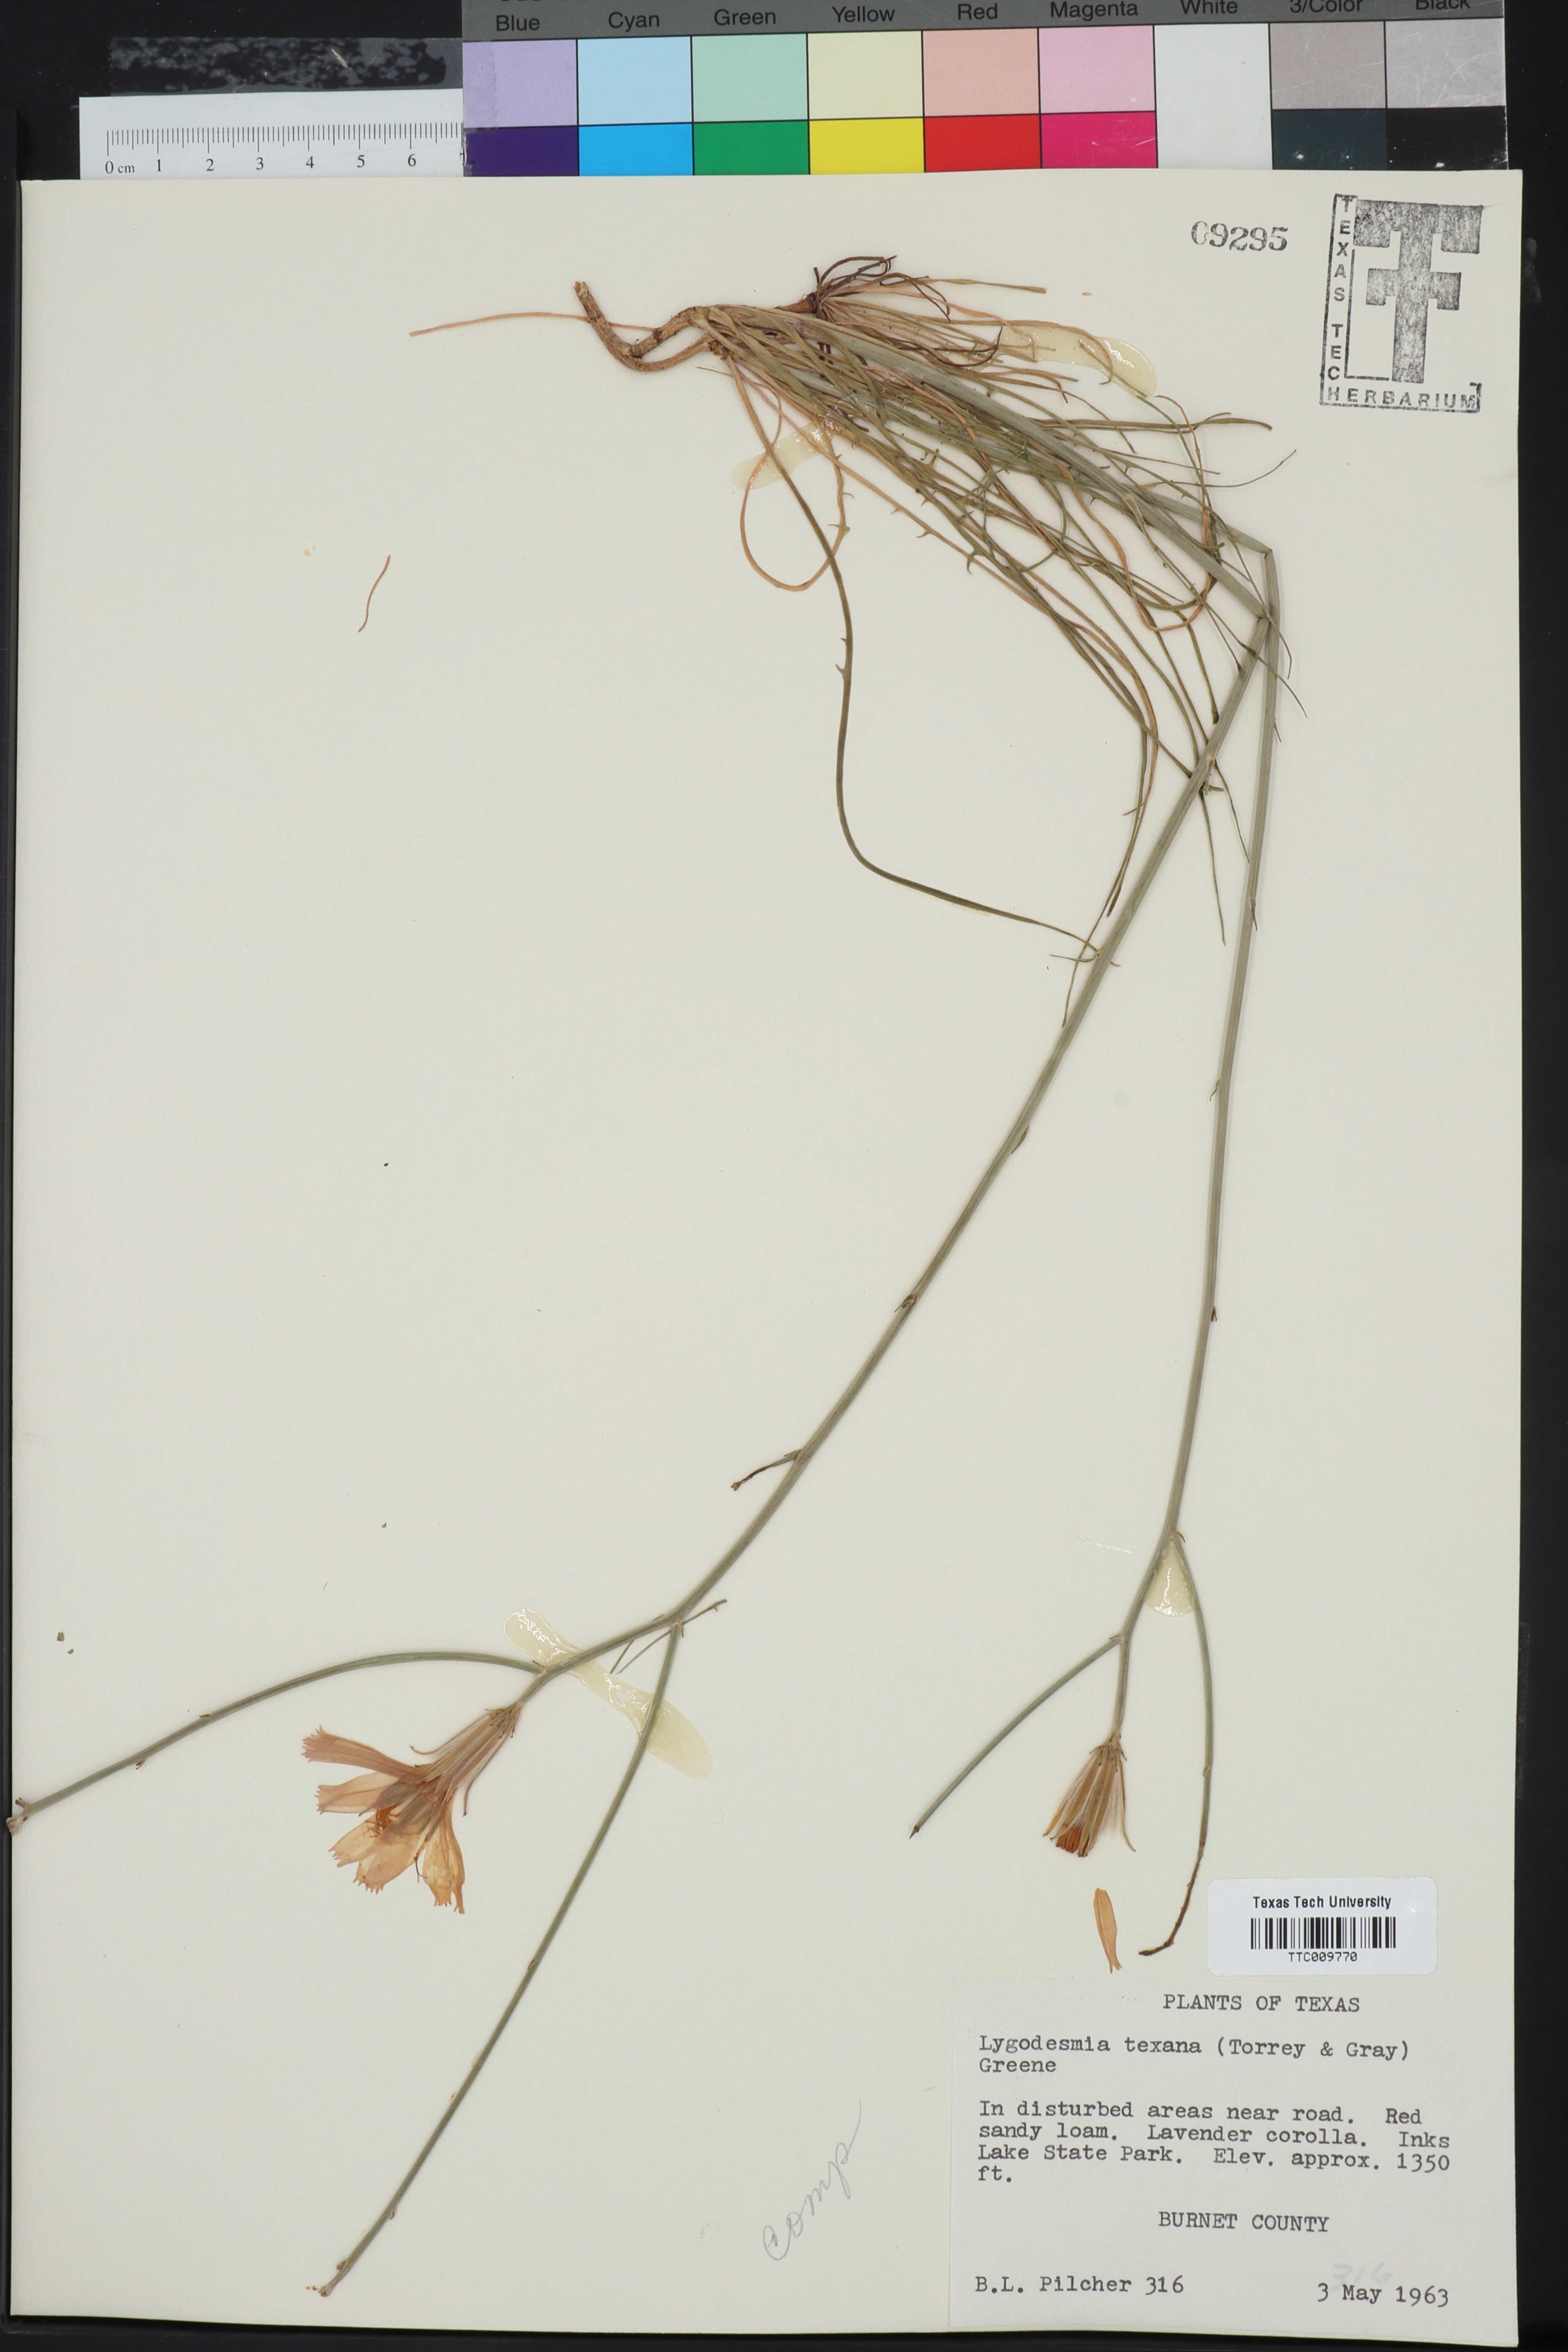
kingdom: Plantae
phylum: Tracheophyta
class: Magnoliopsida
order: Asterales
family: Asteraceae
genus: Lygodesmia
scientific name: Lygodesmia texana
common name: Texas skeleton-plant
